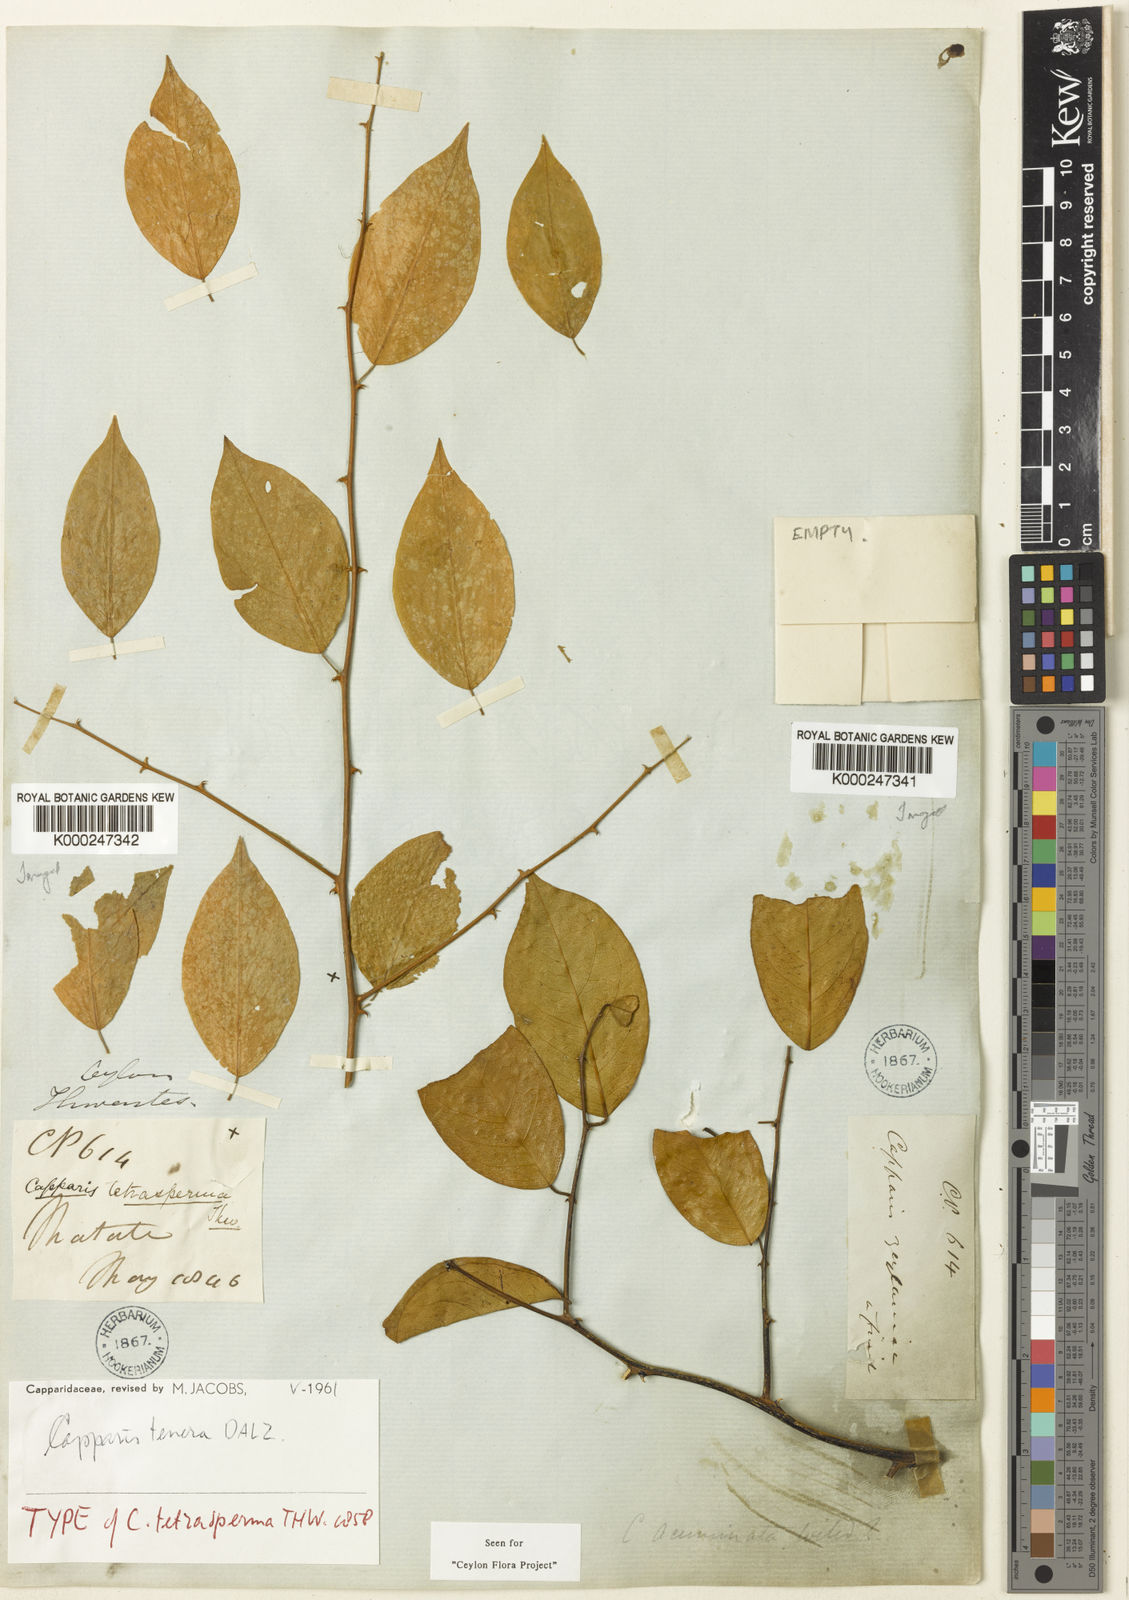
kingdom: Plantae
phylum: Tracheophyta
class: Magnoliopsida
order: Brassicales
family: Capparaceae
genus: Capparis
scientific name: Capparis tenera
